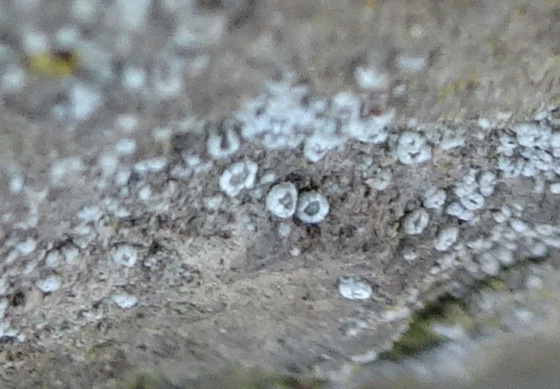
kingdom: Fungi
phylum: Ascomycota
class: Lecanoromycetes
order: Lecanorales
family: Lecanoraceae
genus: Polyozosia
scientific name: Polyozosia dispersa
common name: spredt kantskivelav
